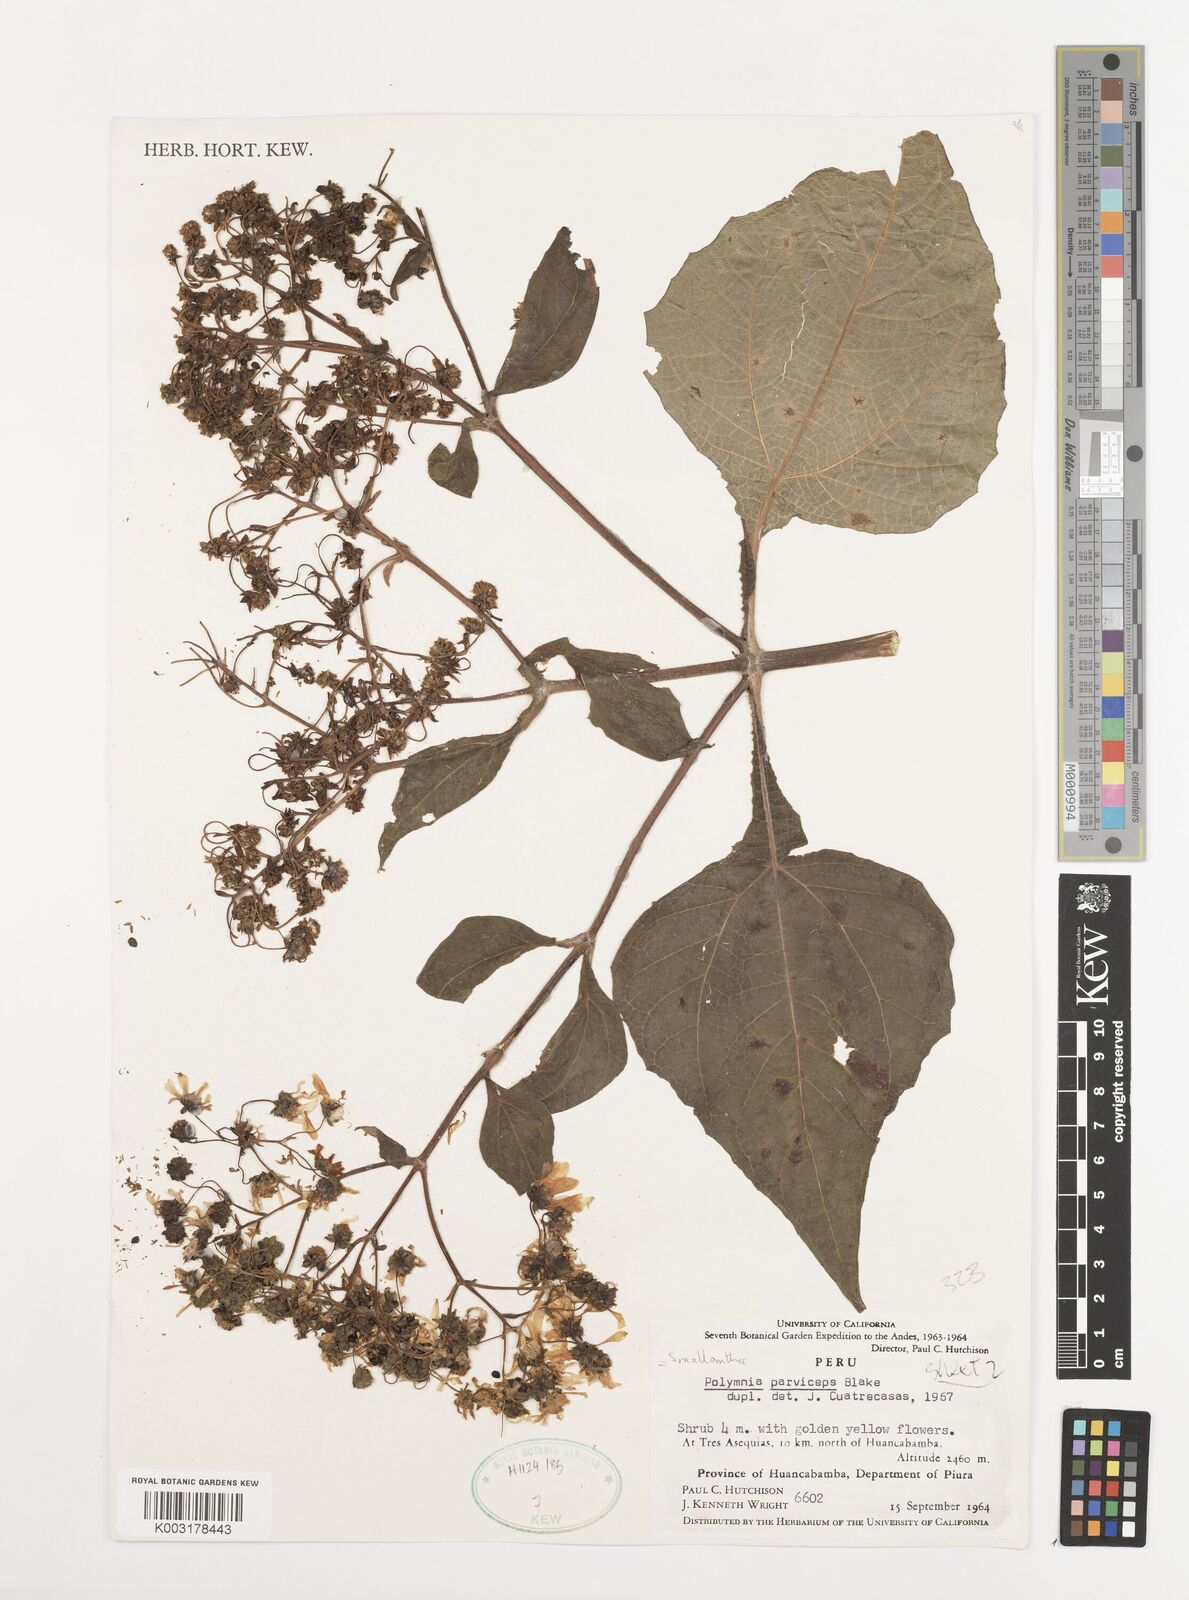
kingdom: Plantae
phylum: Tracheophyta
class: Magnoliopsida
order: Asterales
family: Asteraceae
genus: Smallanthus
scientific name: Smallanthus parviceps
